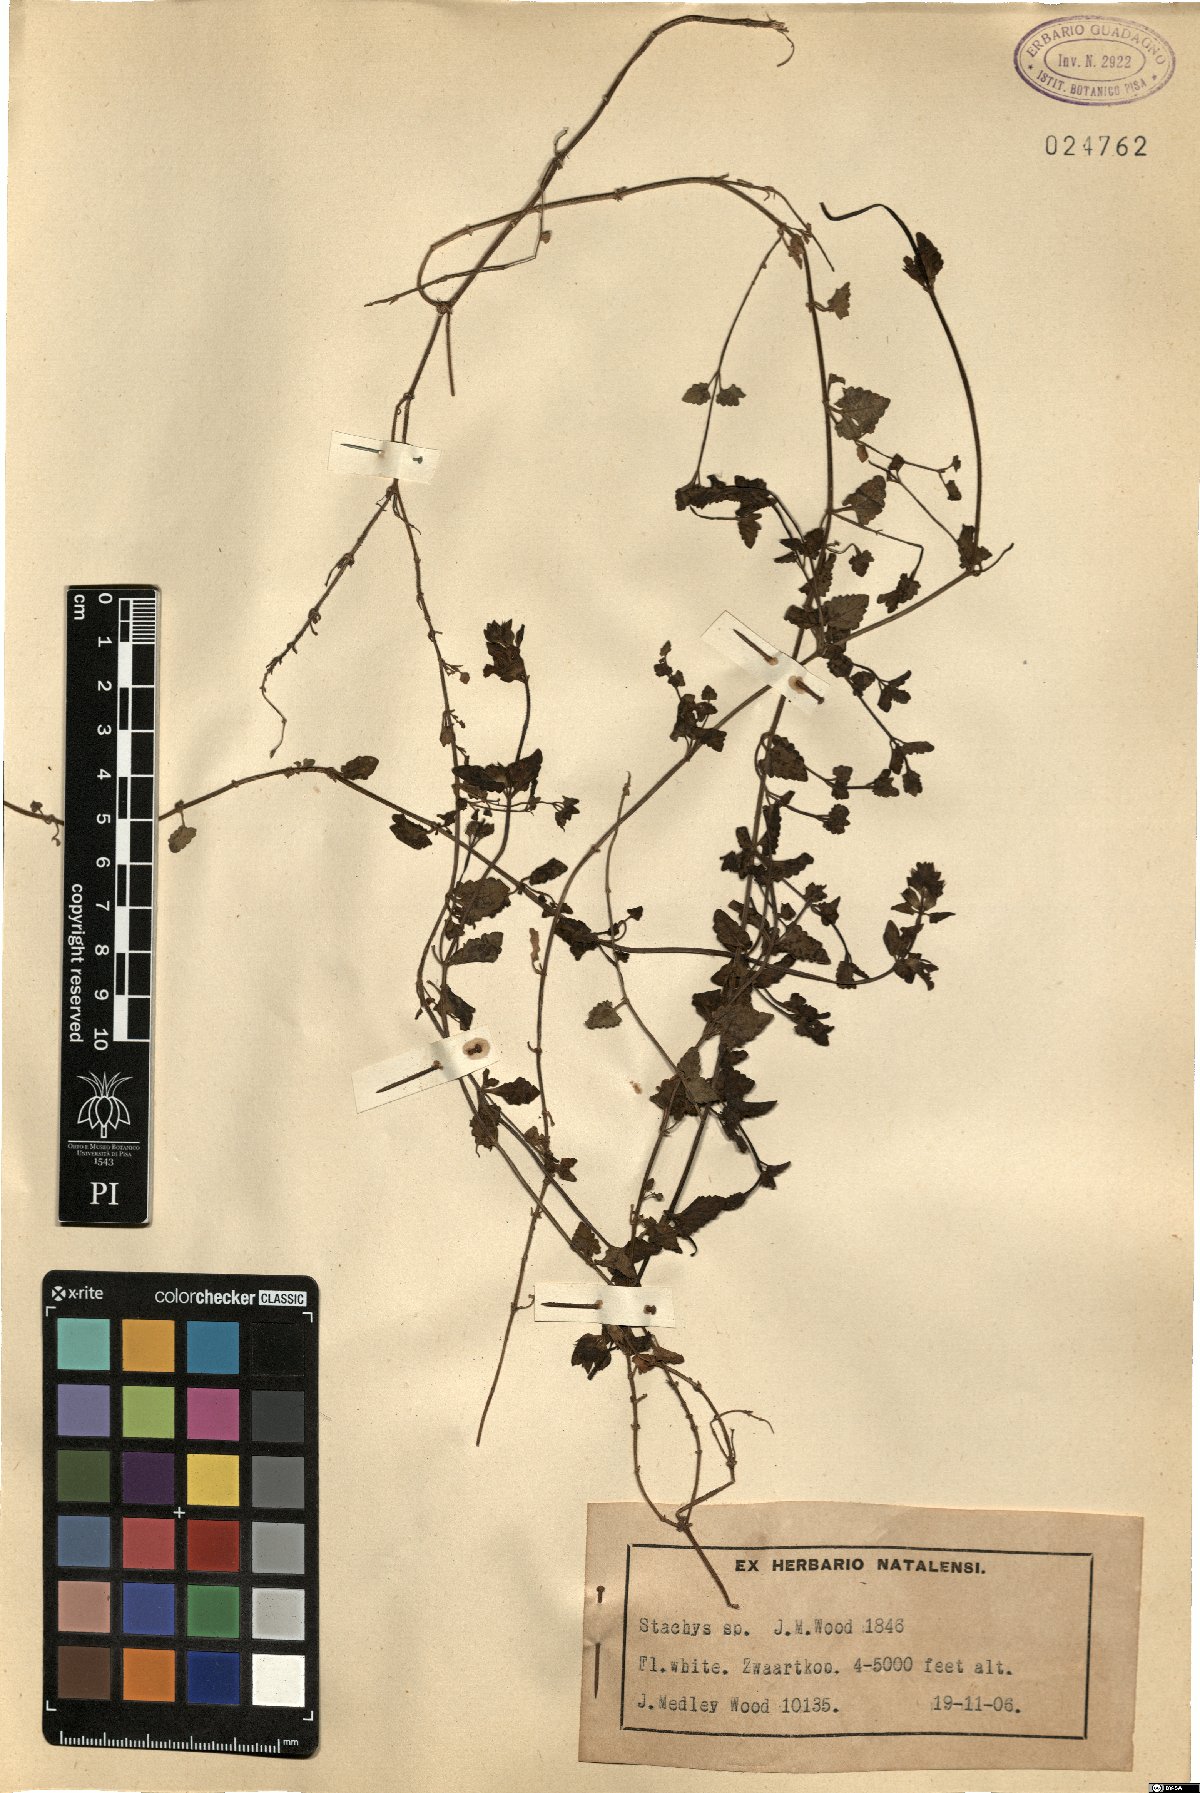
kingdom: Plantae
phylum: Tracheophyta
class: Magnoliopsida
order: Lamiales
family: Lamiaceae
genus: Stachys
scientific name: Stachys
